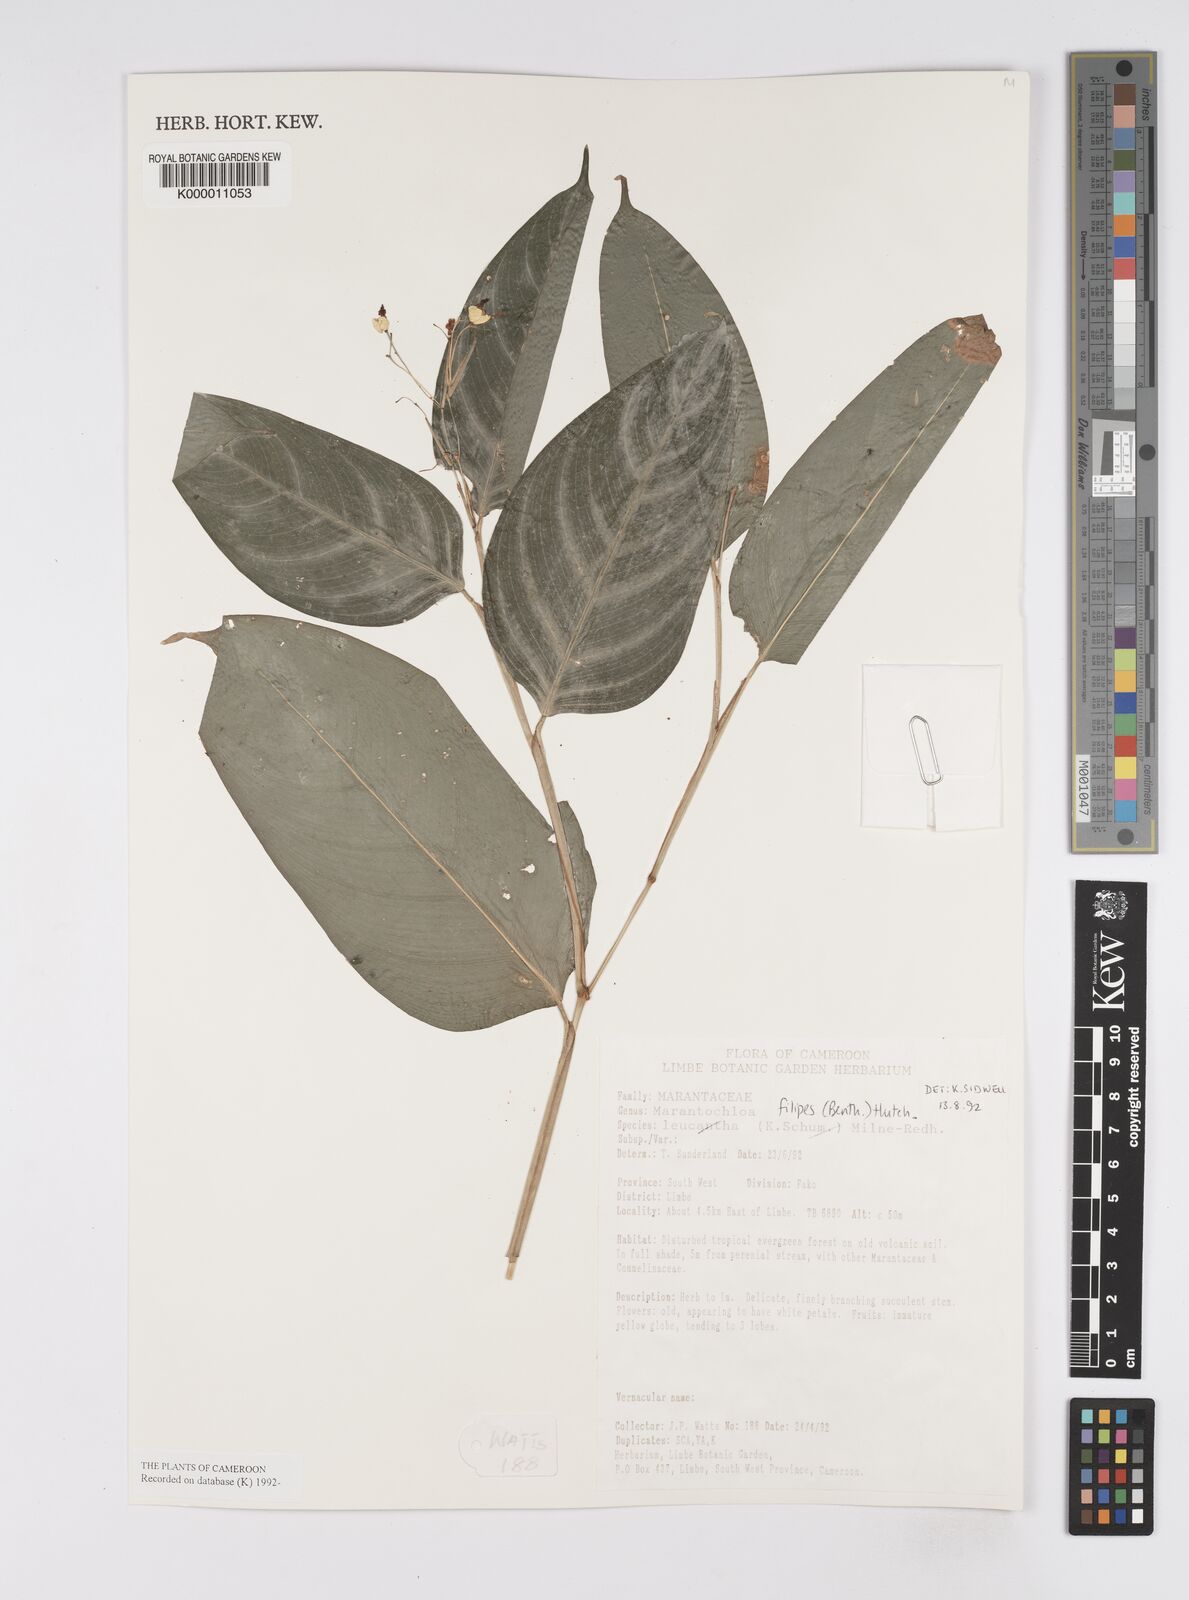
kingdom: Plantae
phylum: Tracheophyta
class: Liliopsida
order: Zingiberales
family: Marantaceae
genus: Marantochloa
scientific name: Marantochloa filipes
